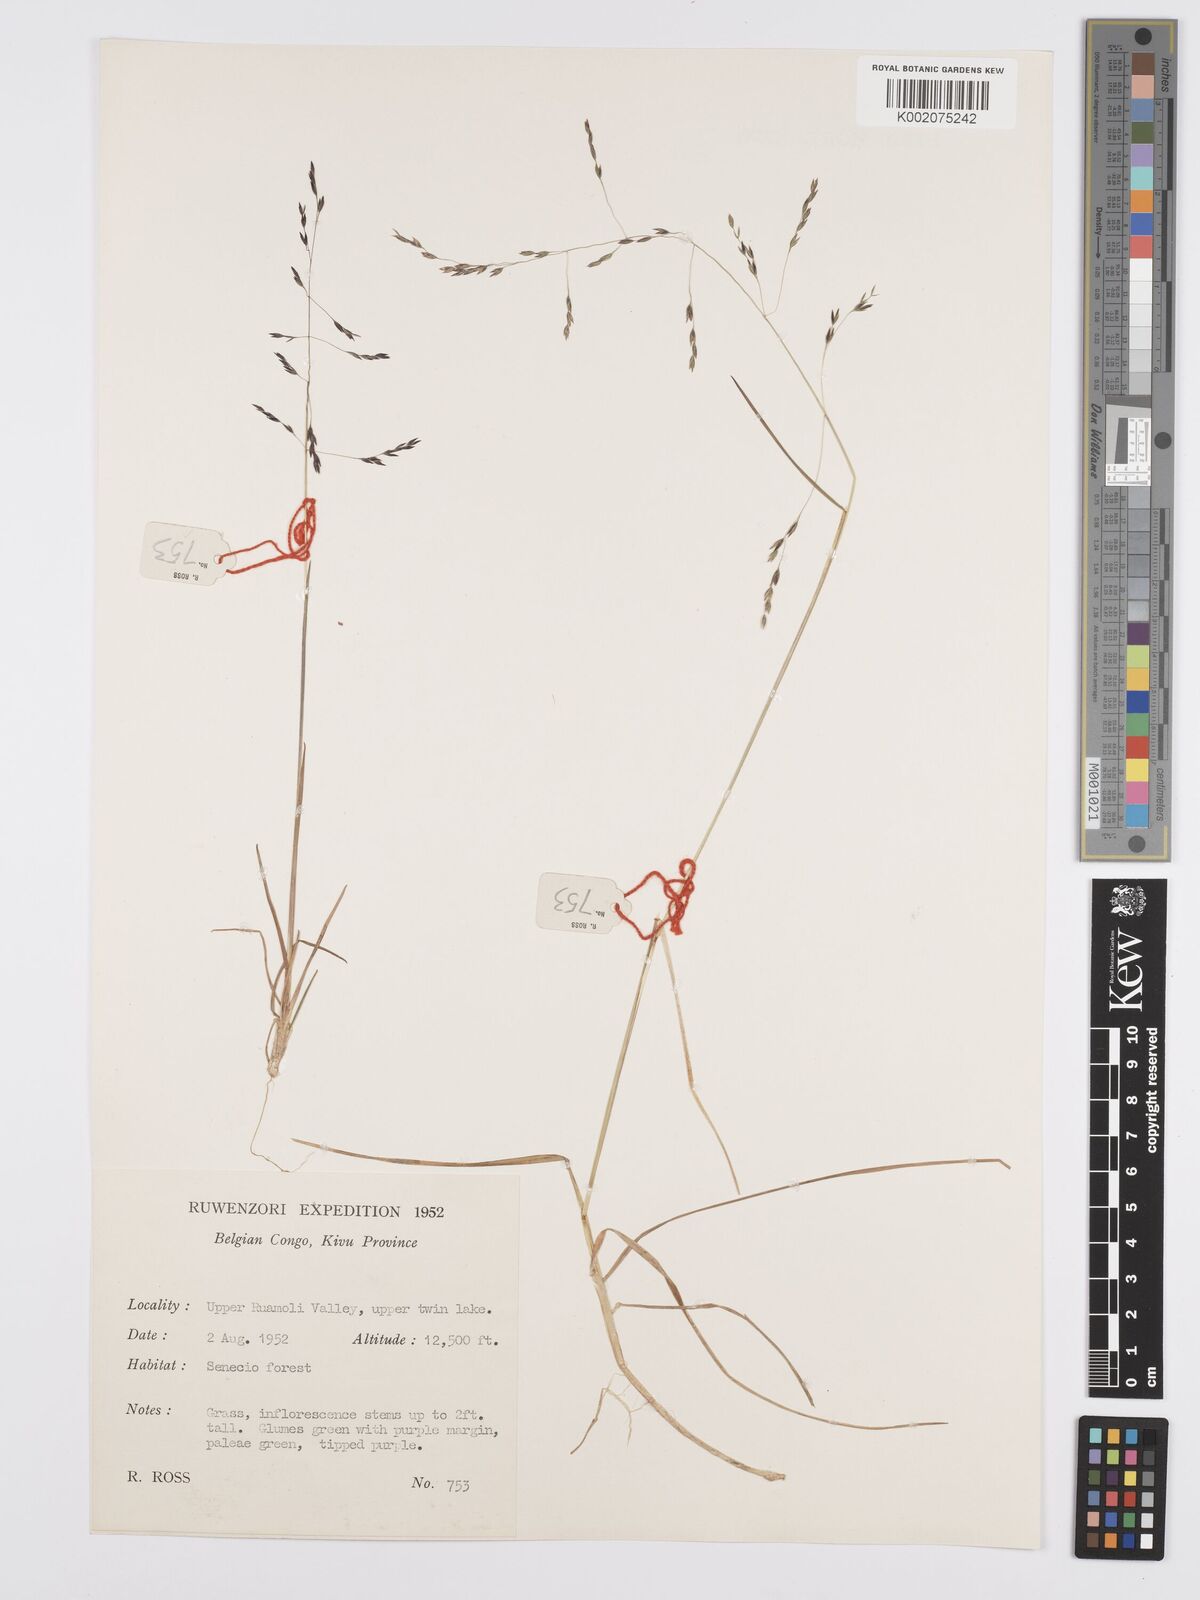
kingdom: Plantae
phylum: Tracheophyta
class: Liliopsida
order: Poales
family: Poaceae
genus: Poa
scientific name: Poa schimperiana
